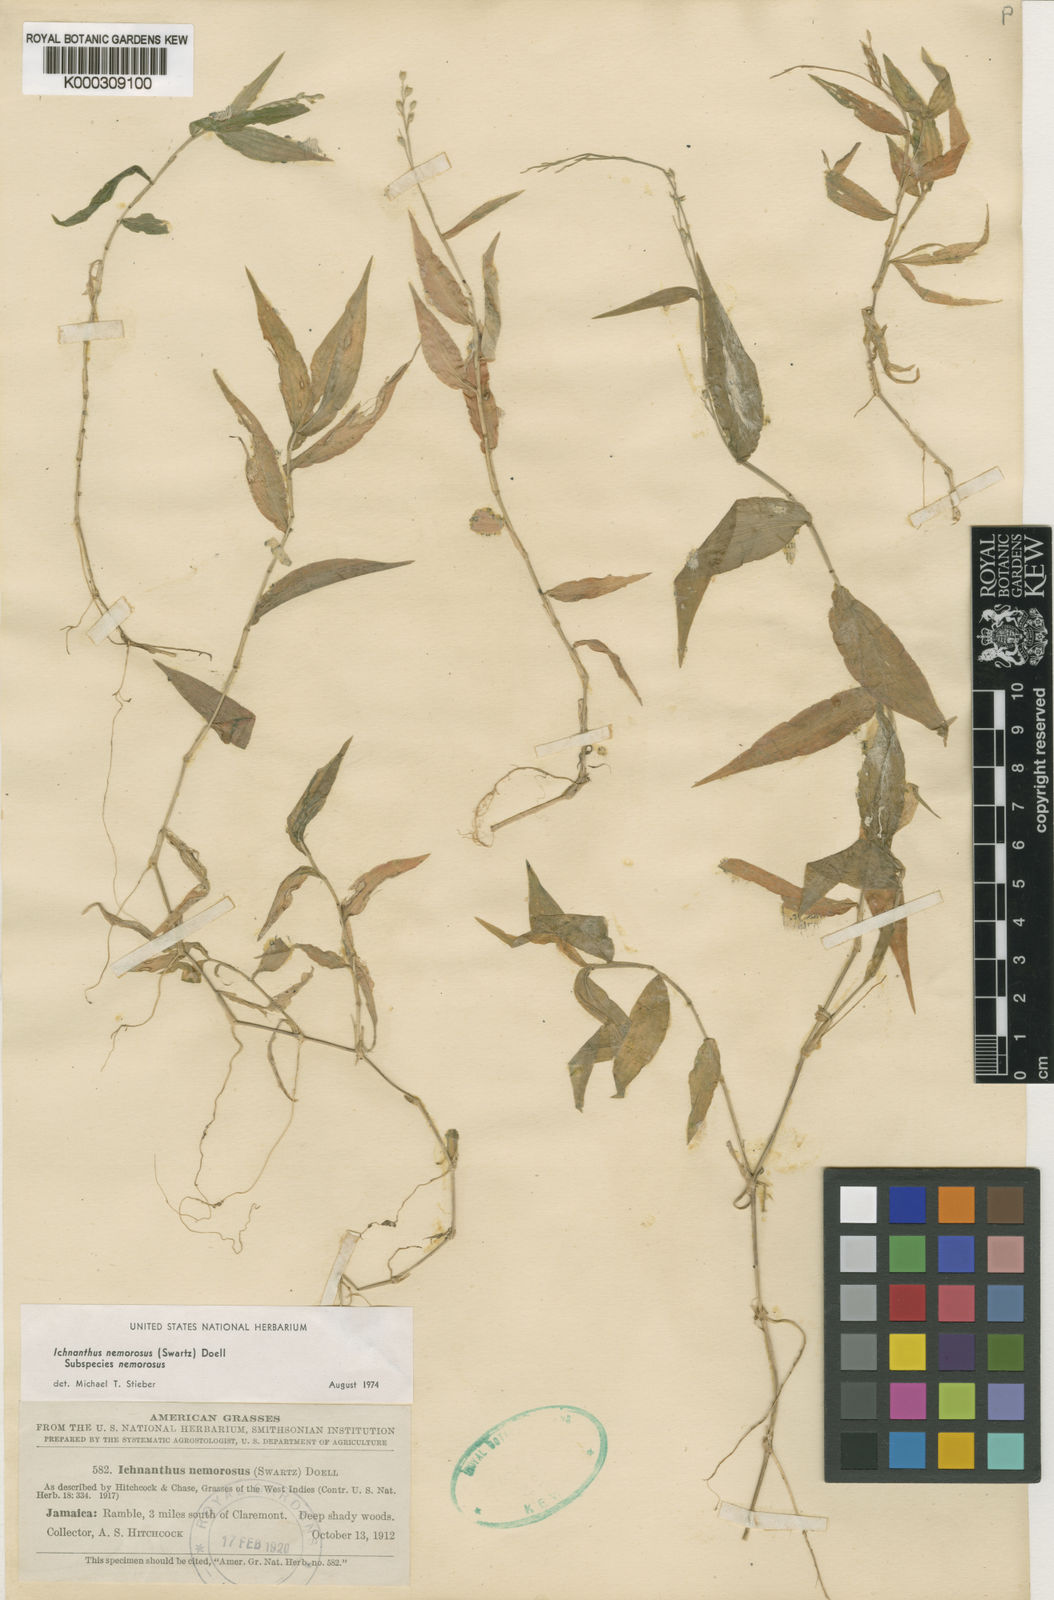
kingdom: Plantae
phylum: Tracheophyta
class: Liliopsida
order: Poales
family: Poaceae
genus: Ichnanthus
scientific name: Ichnanthus
